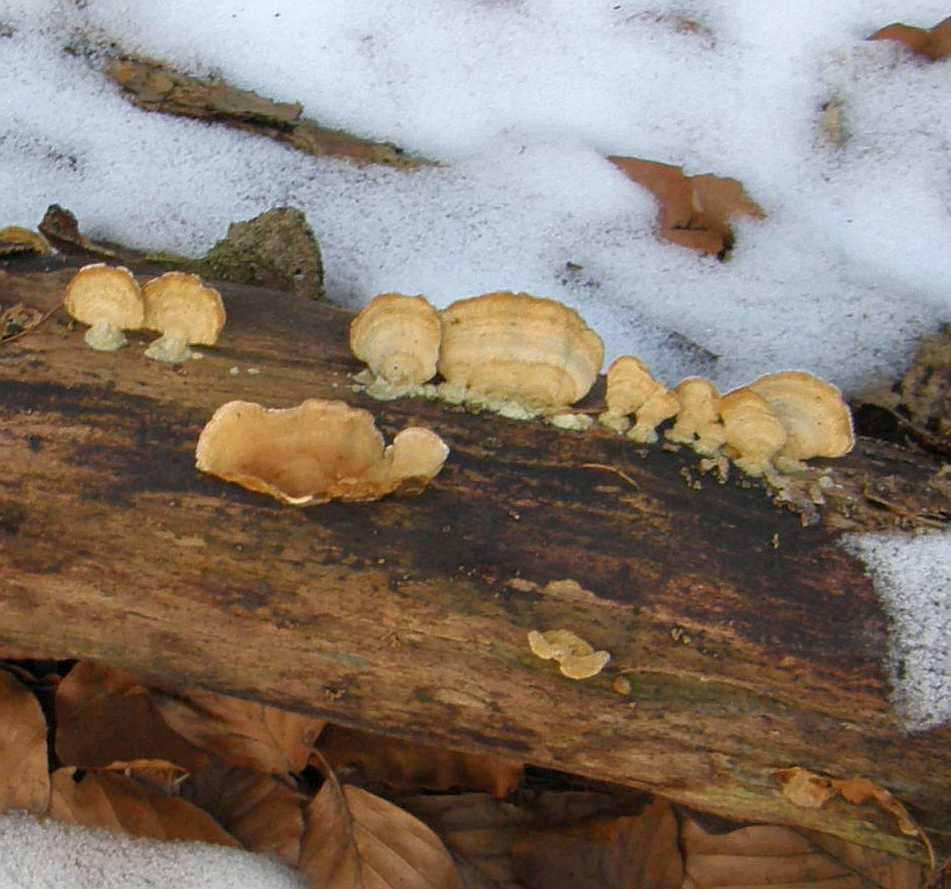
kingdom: Fungi
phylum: Basidiomycota
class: Agaricomycetes
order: Russulales
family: Stereaceae
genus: Stereum
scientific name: Stereum subtomentosum
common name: smuk lædersvamp
